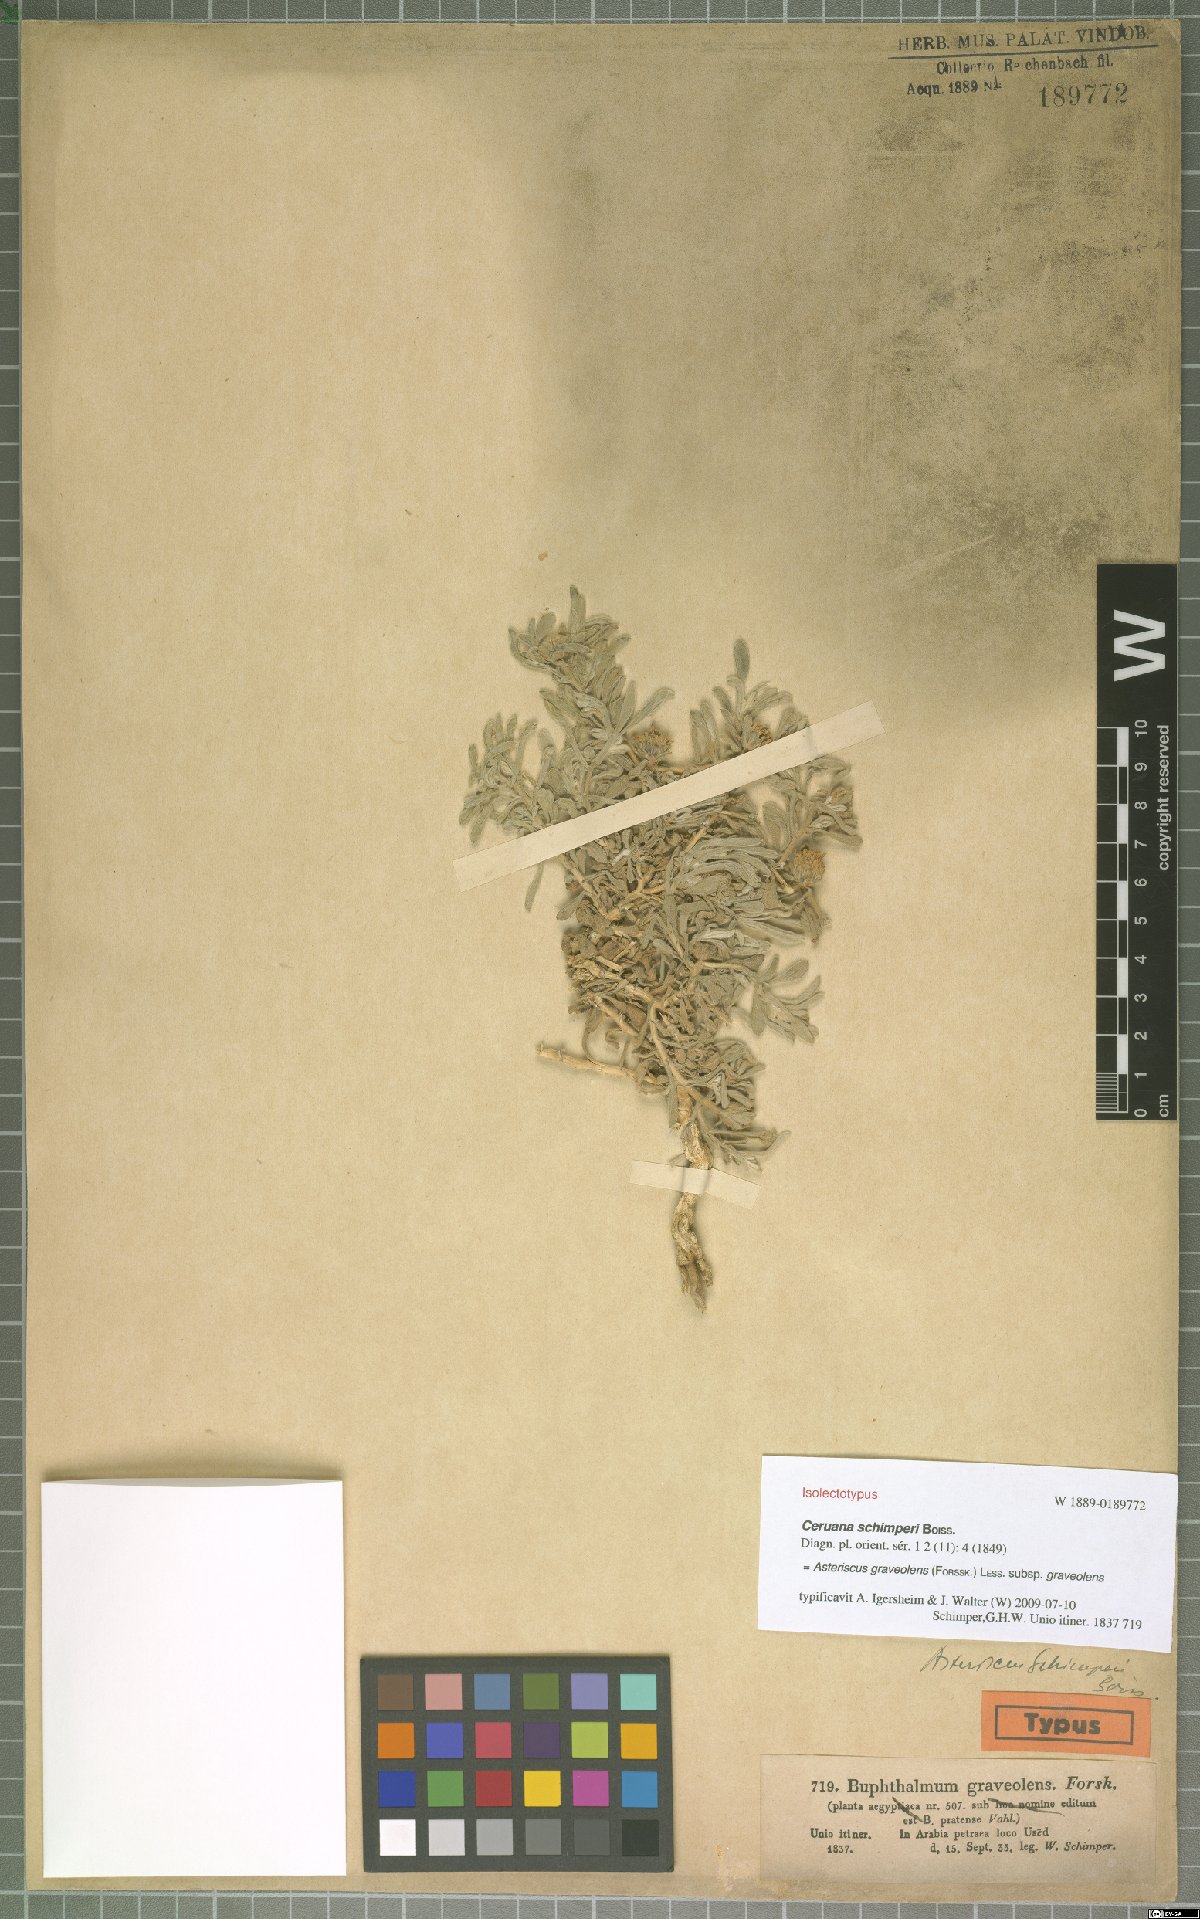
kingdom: Plantae
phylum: Tracheophyta
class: Magnoliopsida
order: Asterales
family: Asteraceae
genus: Asteriscus
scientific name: Asteriscus graveolens
